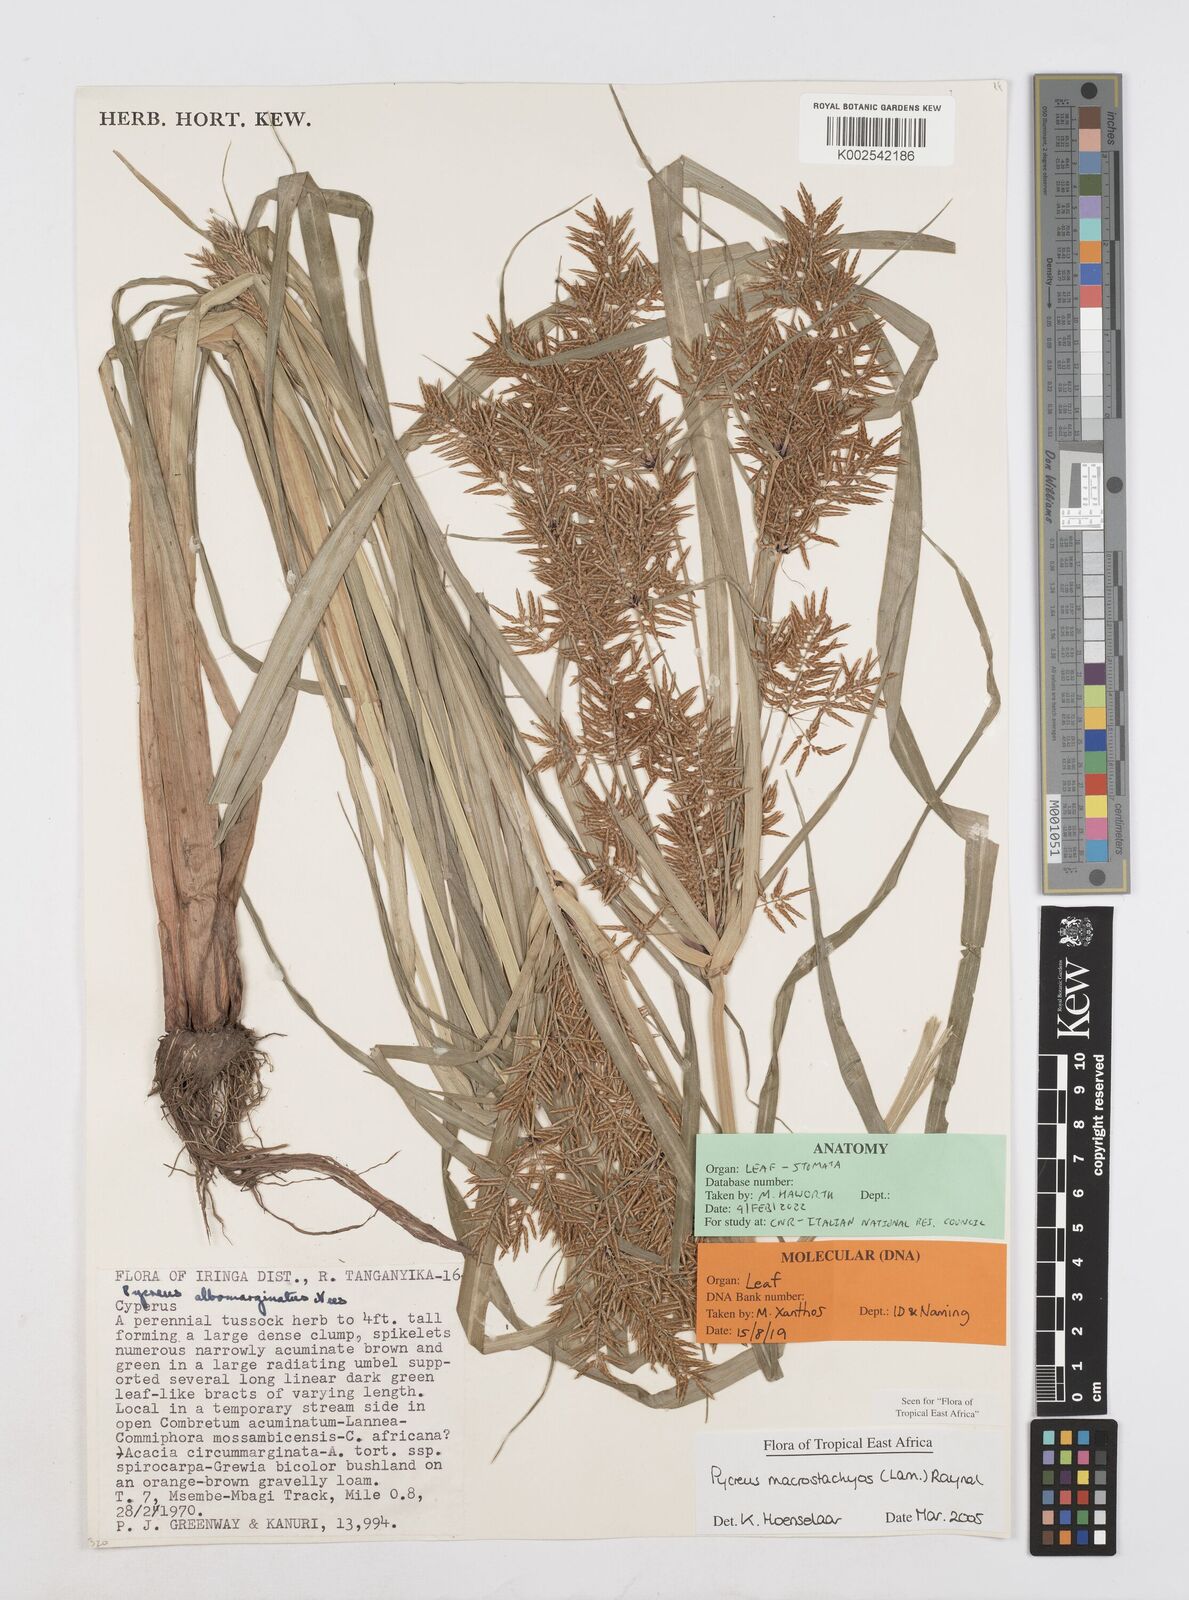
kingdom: Plantae
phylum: Tracheophyta
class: Liliopsida
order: Poales
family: Cyperaceae
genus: Cyperus
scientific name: Cyperus macrostachyos
